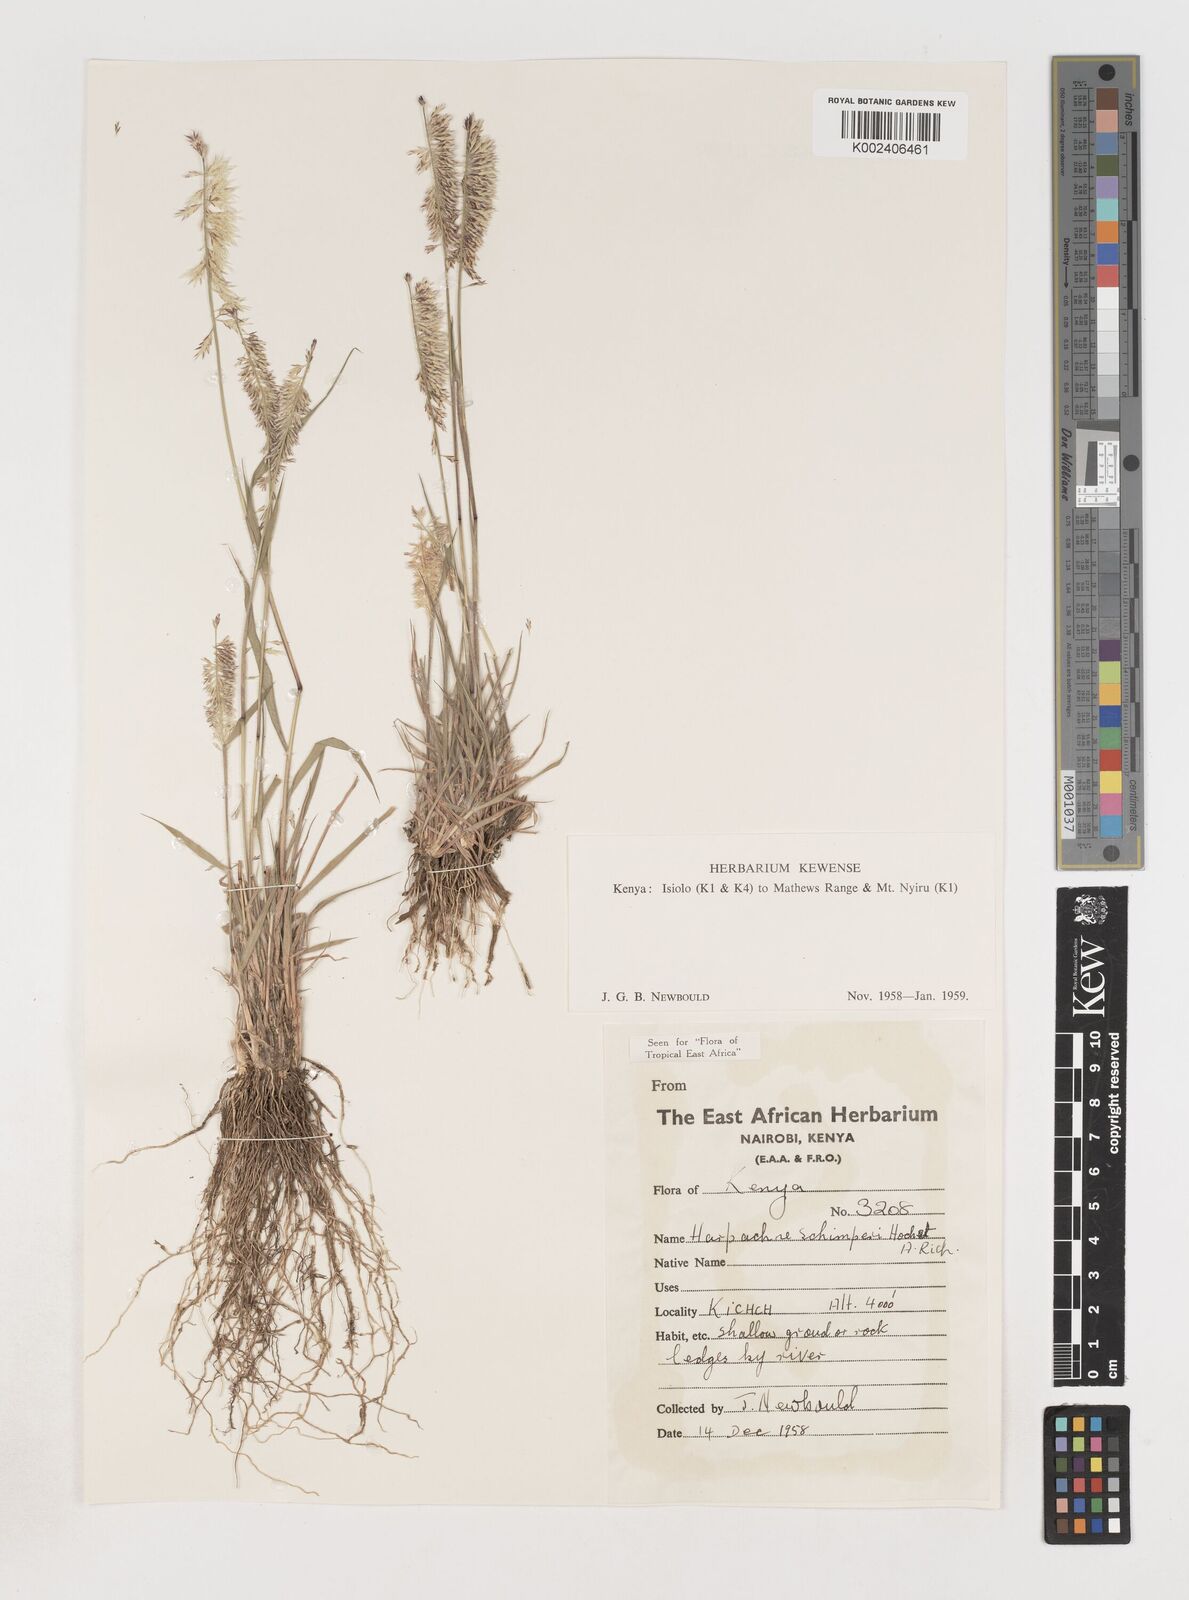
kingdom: Plantae
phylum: Tracheophyta
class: Liliopsida
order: Poales
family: Poaceae
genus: Harpachne
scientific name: Harpachne schimperi
